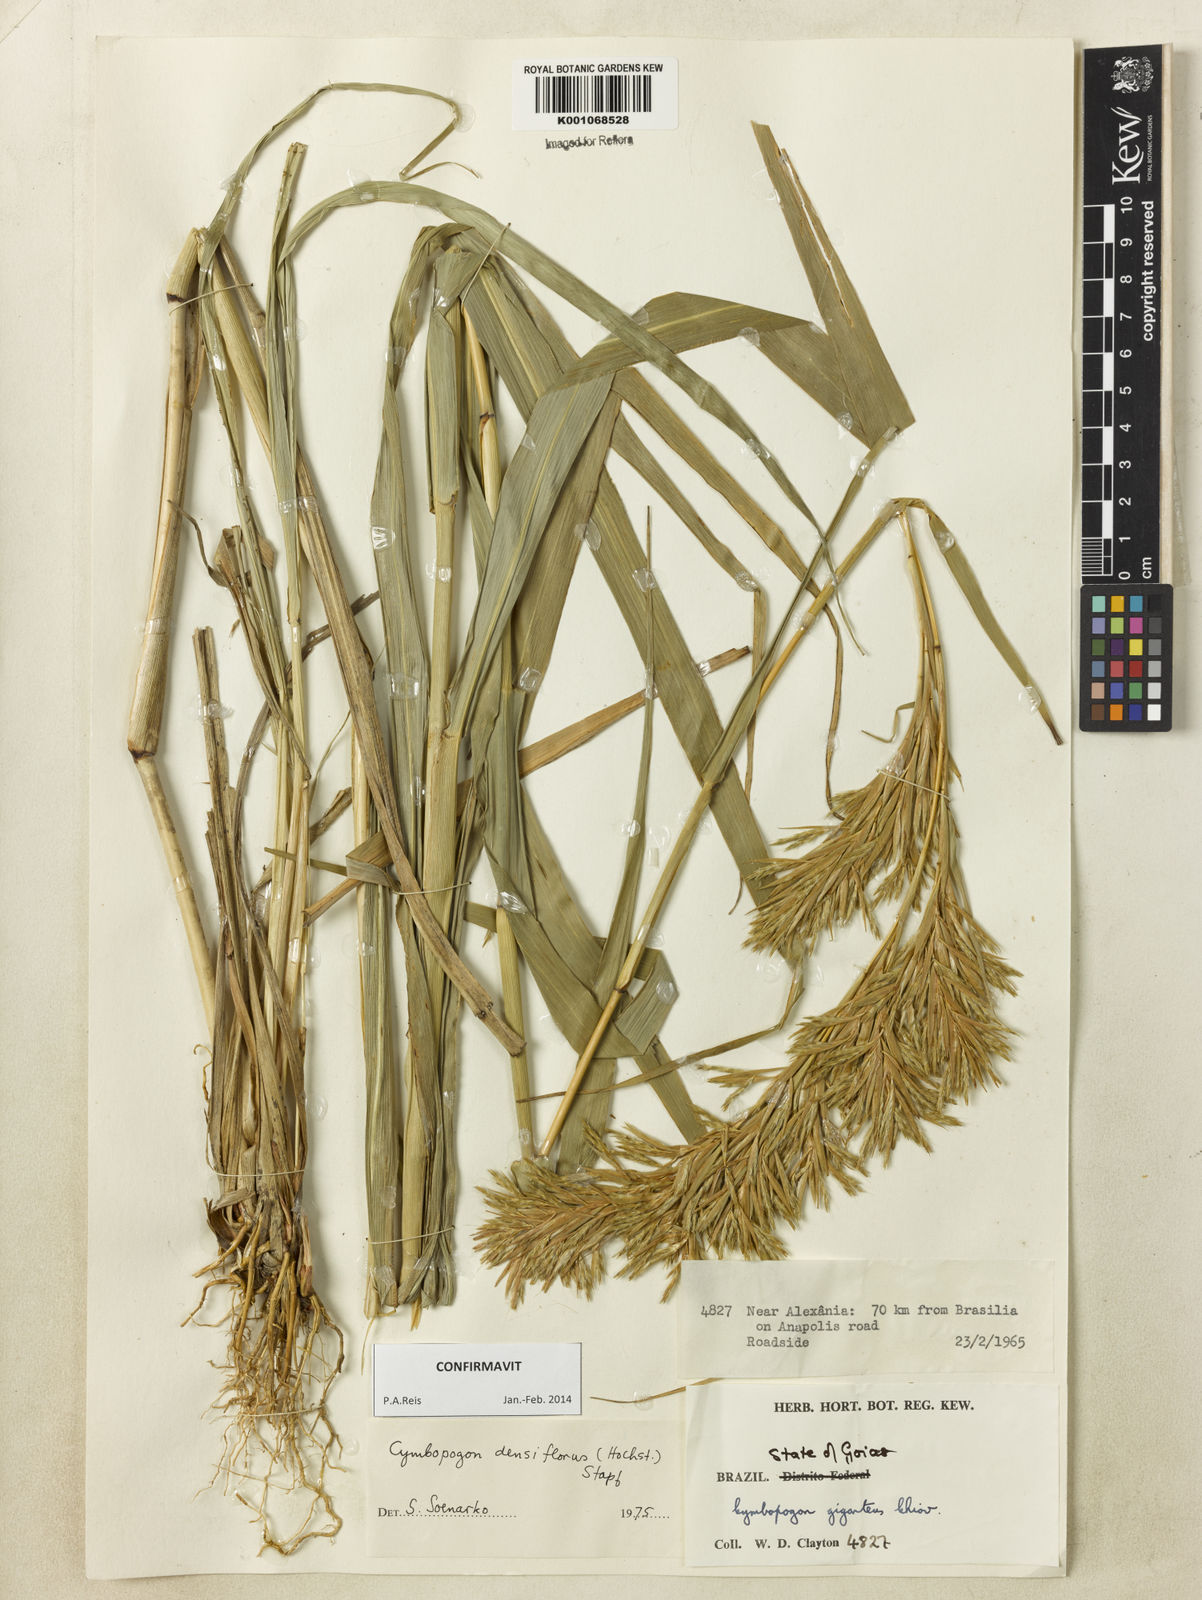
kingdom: Plantae
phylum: Tracheophyta
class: Liliopsida
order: Poales
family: Poaceae
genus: Cymbopogon
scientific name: Cymbopogon densiflorus
